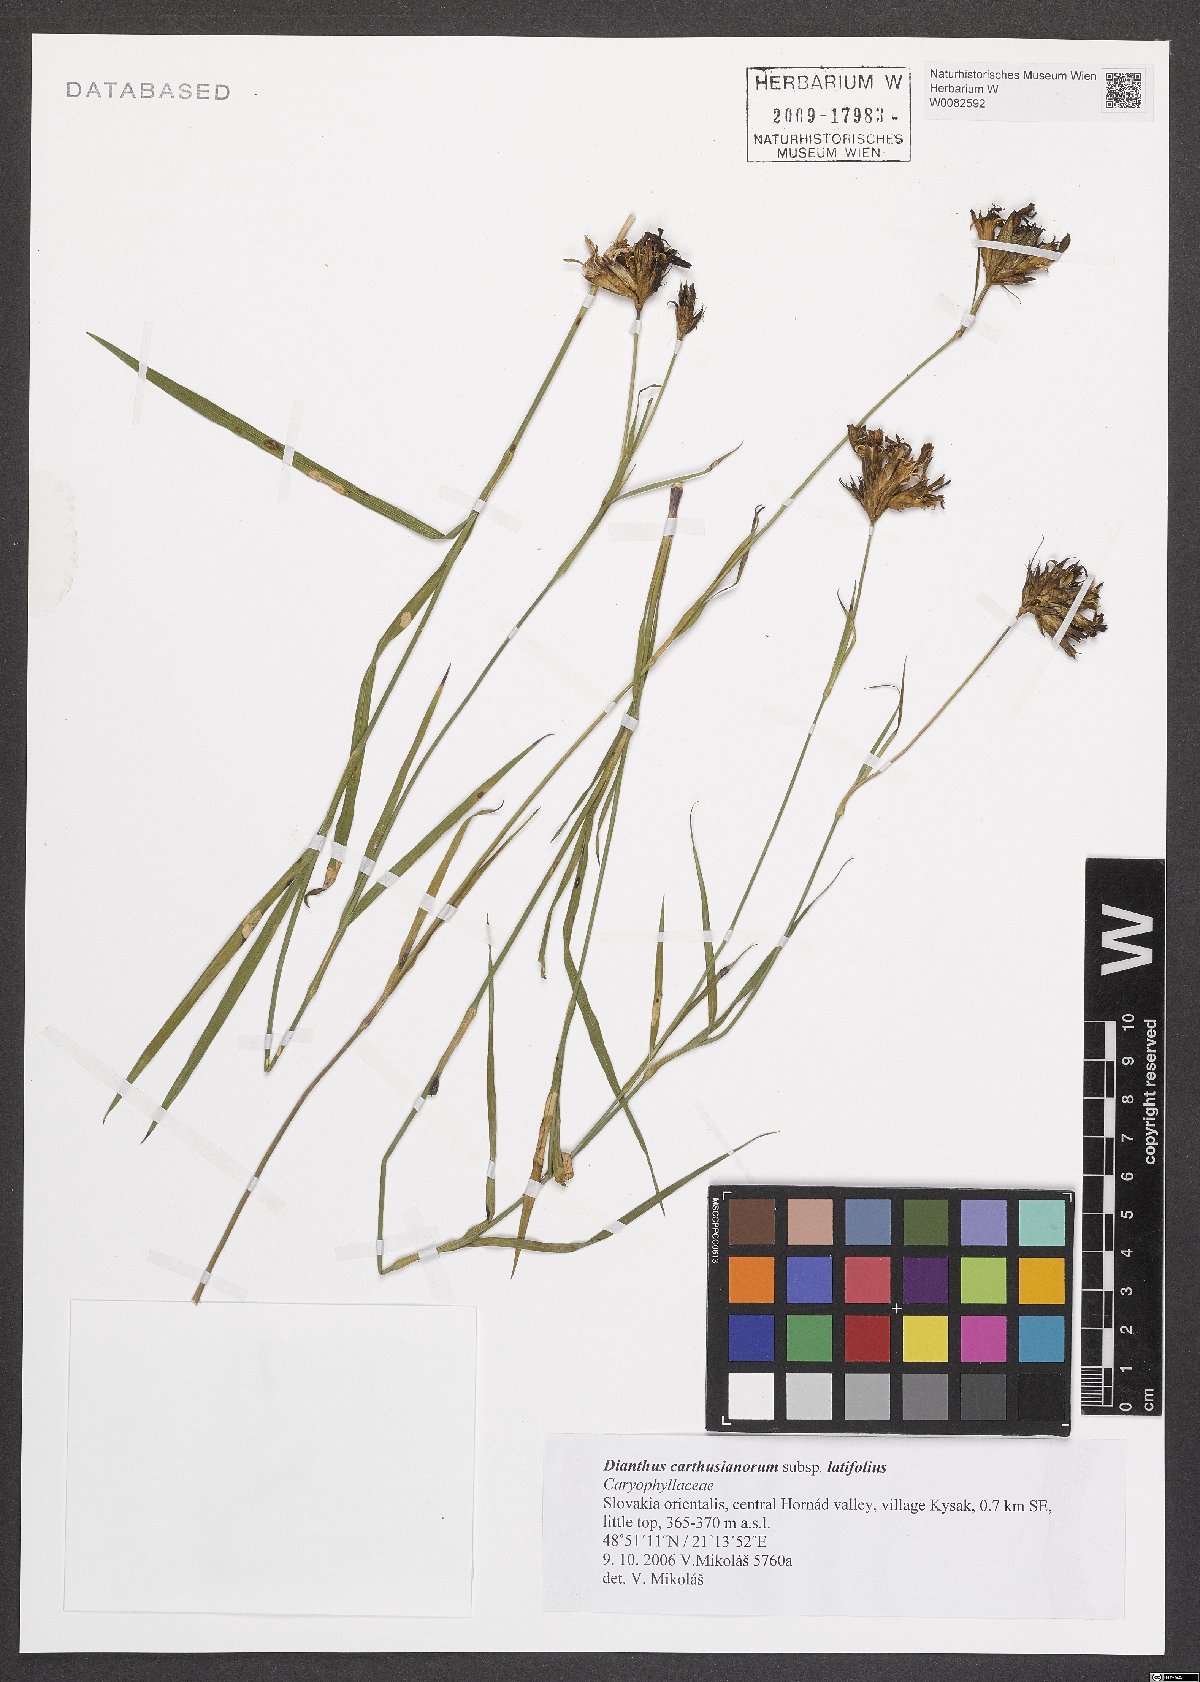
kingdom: Plantae
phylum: Tracheophyta
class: Magnoliopsida
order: Caryophyllales
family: Caryophyllaceae
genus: Dianthus
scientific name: Dianthus carthusianorum
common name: Carthusian pink
